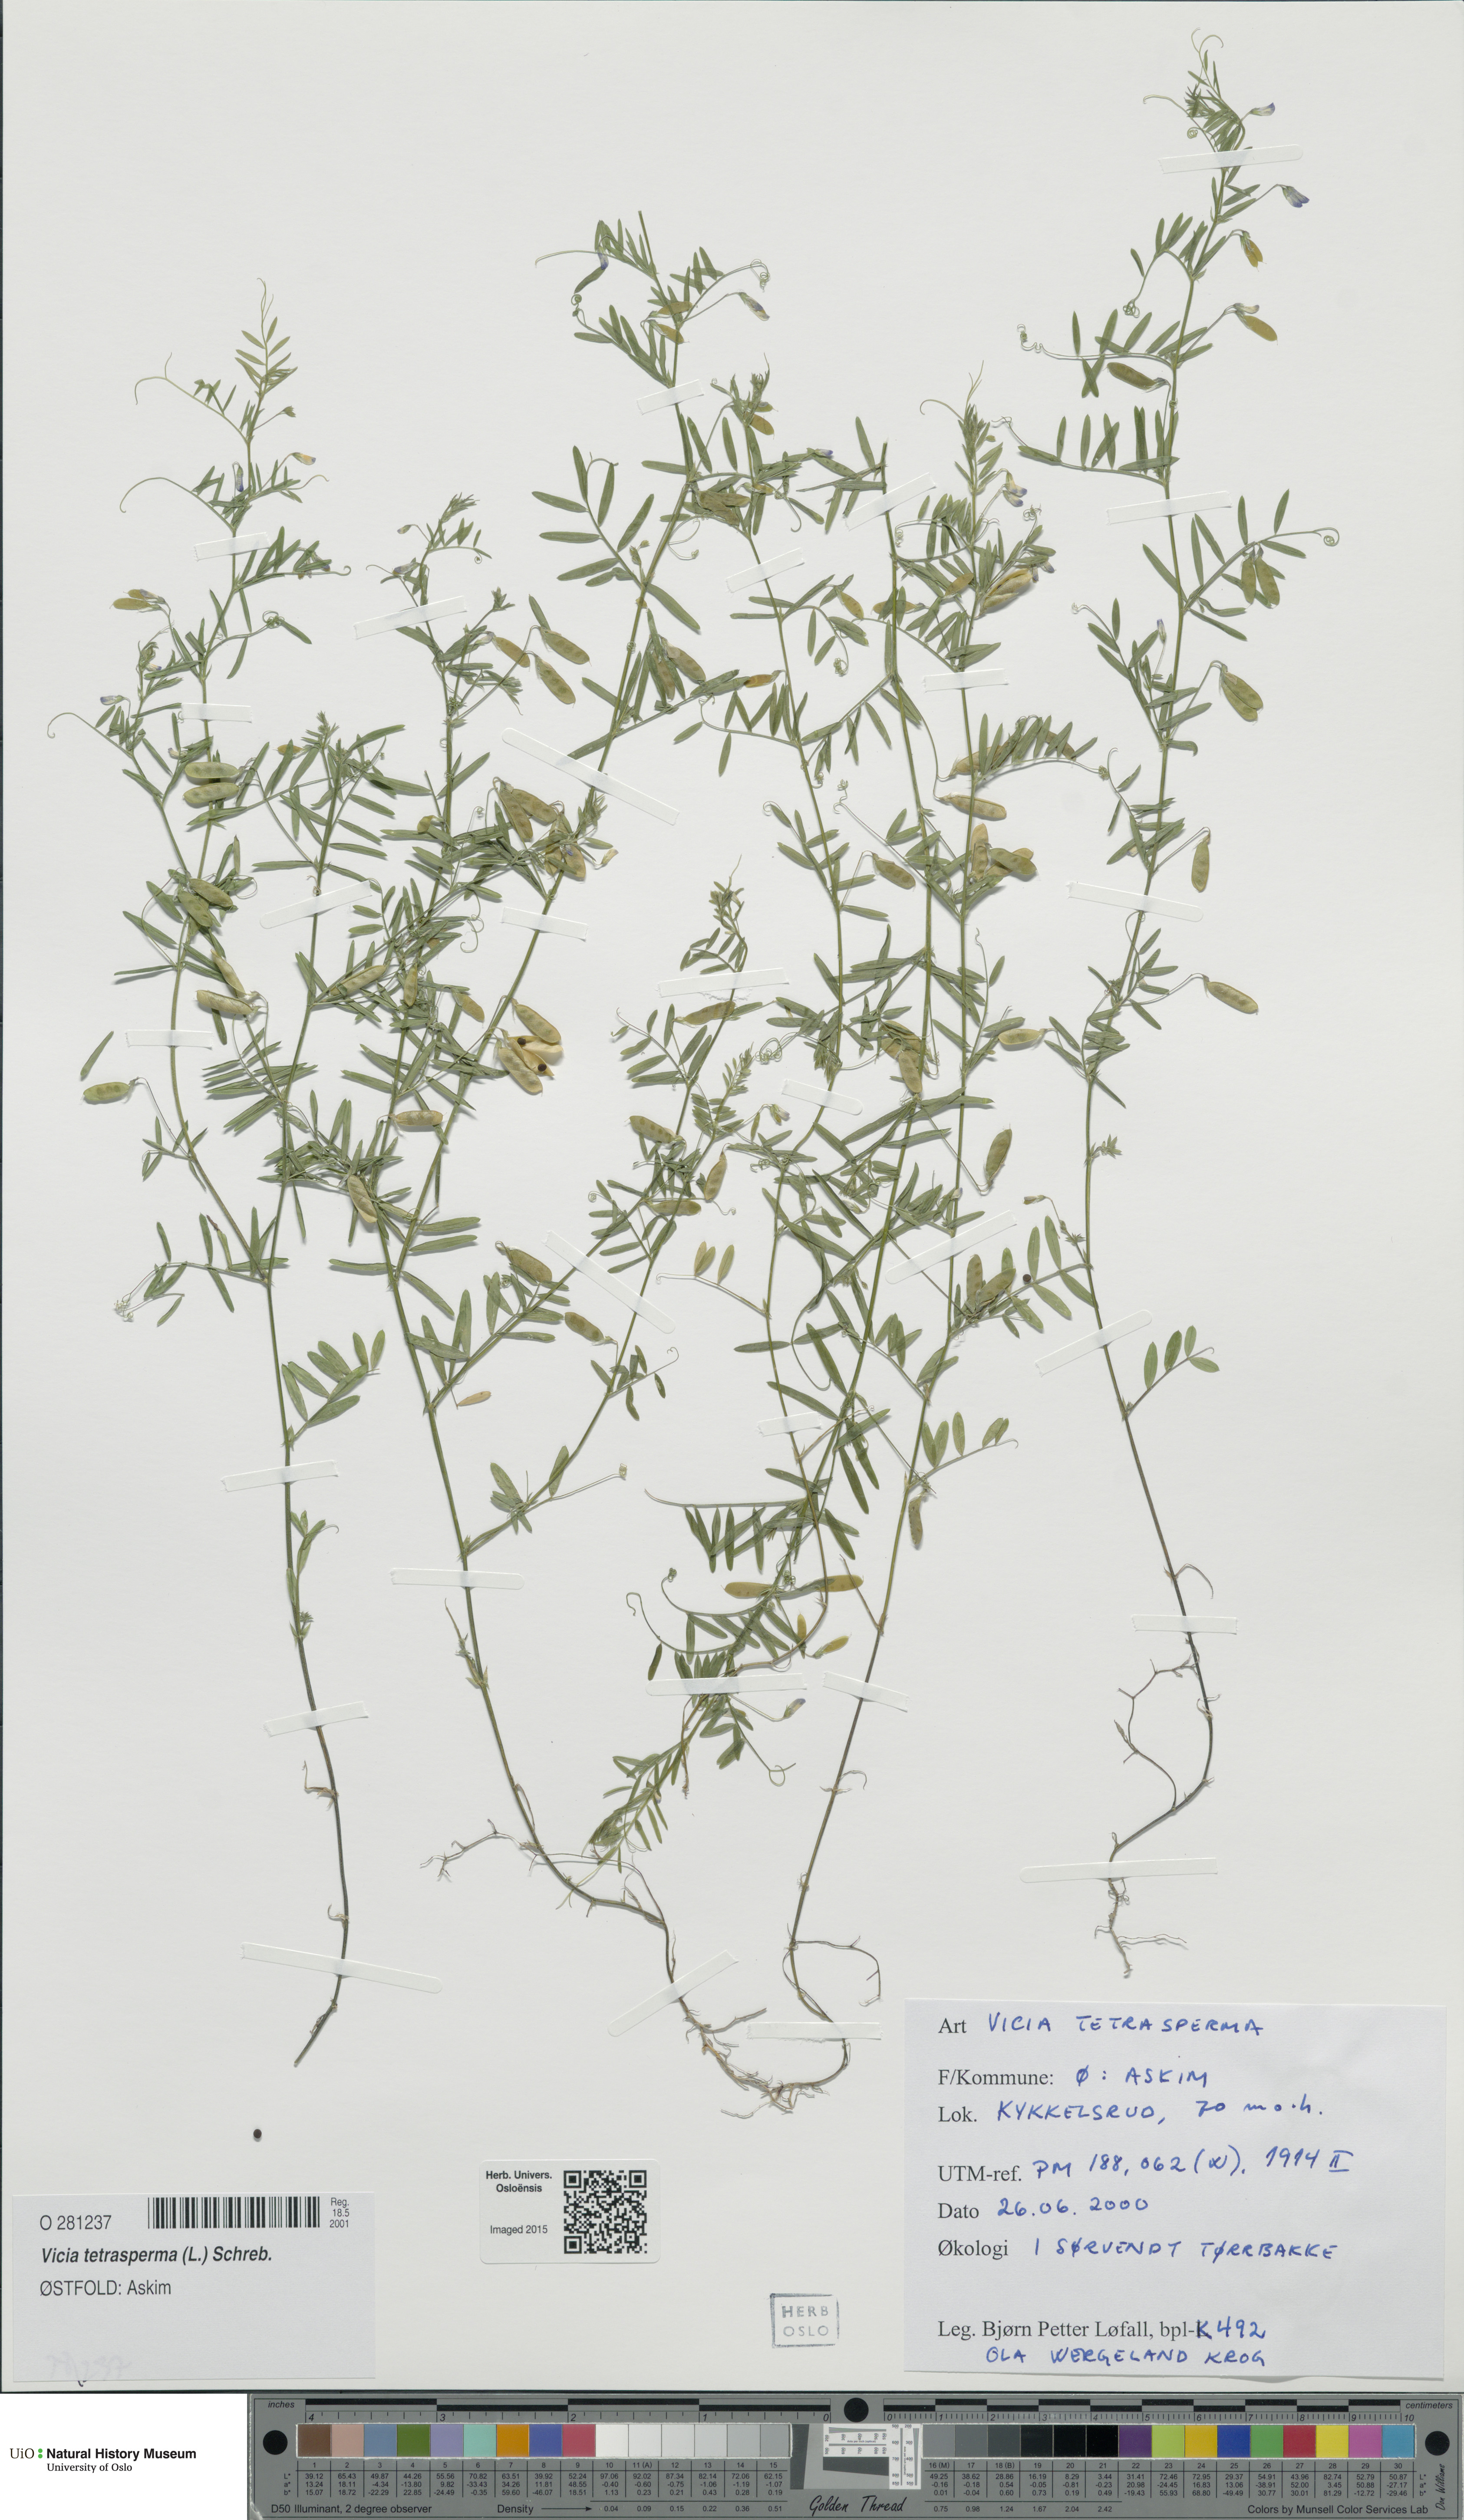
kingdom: Plantae
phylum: Tracheophyta
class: Magnoliopsida
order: Fabales
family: Fabaceae
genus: Vicia
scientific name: Vicia tetrasperma
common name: Smooth tare
